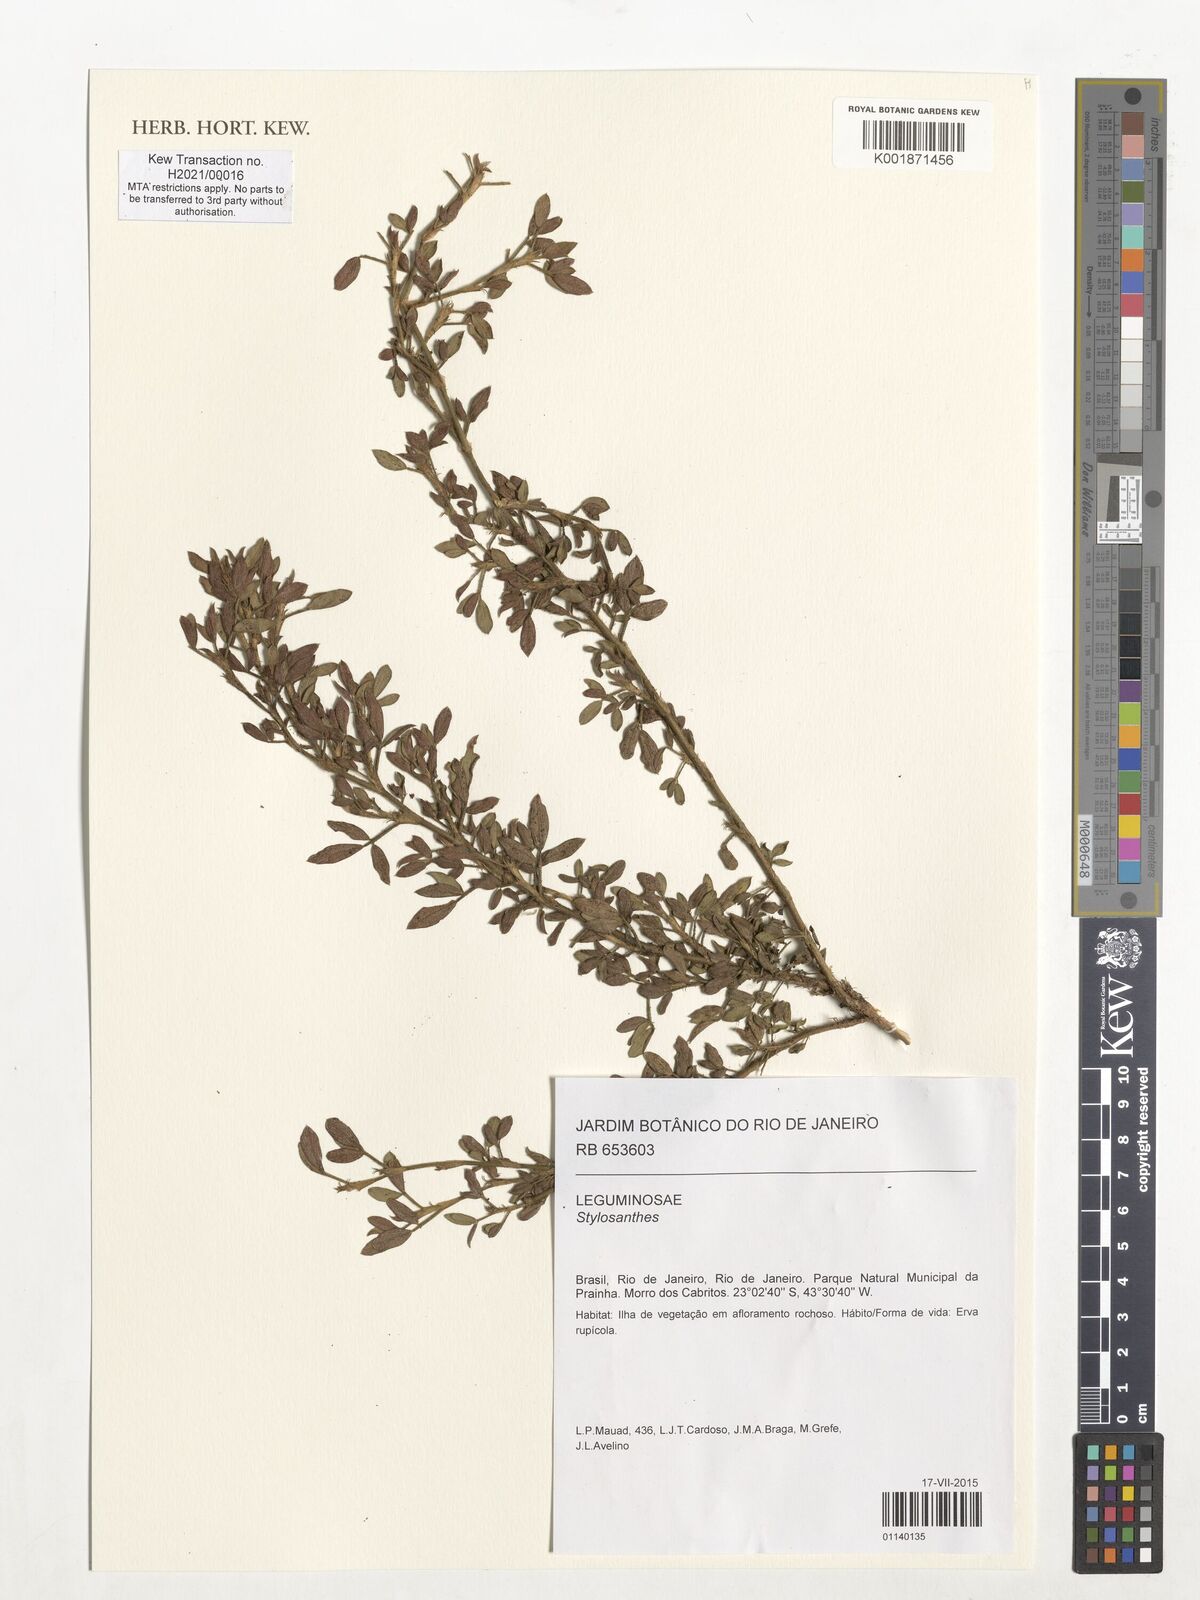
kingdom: Plantae
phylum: Tracheophyta
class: Magnoliopsida
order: Fabales
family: Fabaceae
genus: Stylosanthes
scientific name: Stylosanthes
